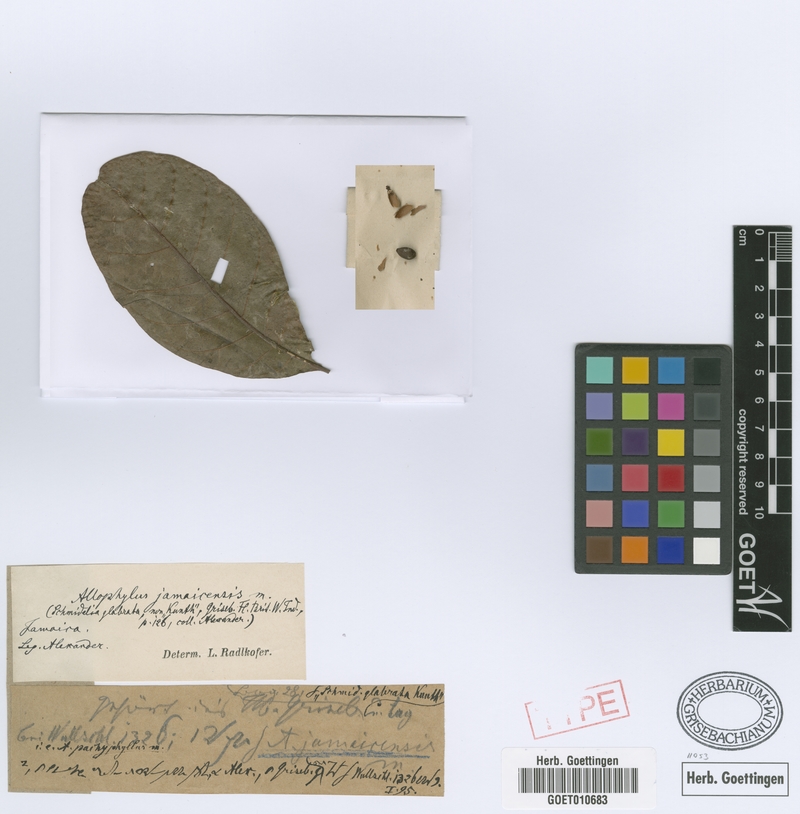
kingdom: Plantae
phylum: Tracheophyta
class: Magnoliopsida
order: Sapindales
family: Sapindaceae
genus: Allophylus
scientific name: Allophylus jamaicensis
